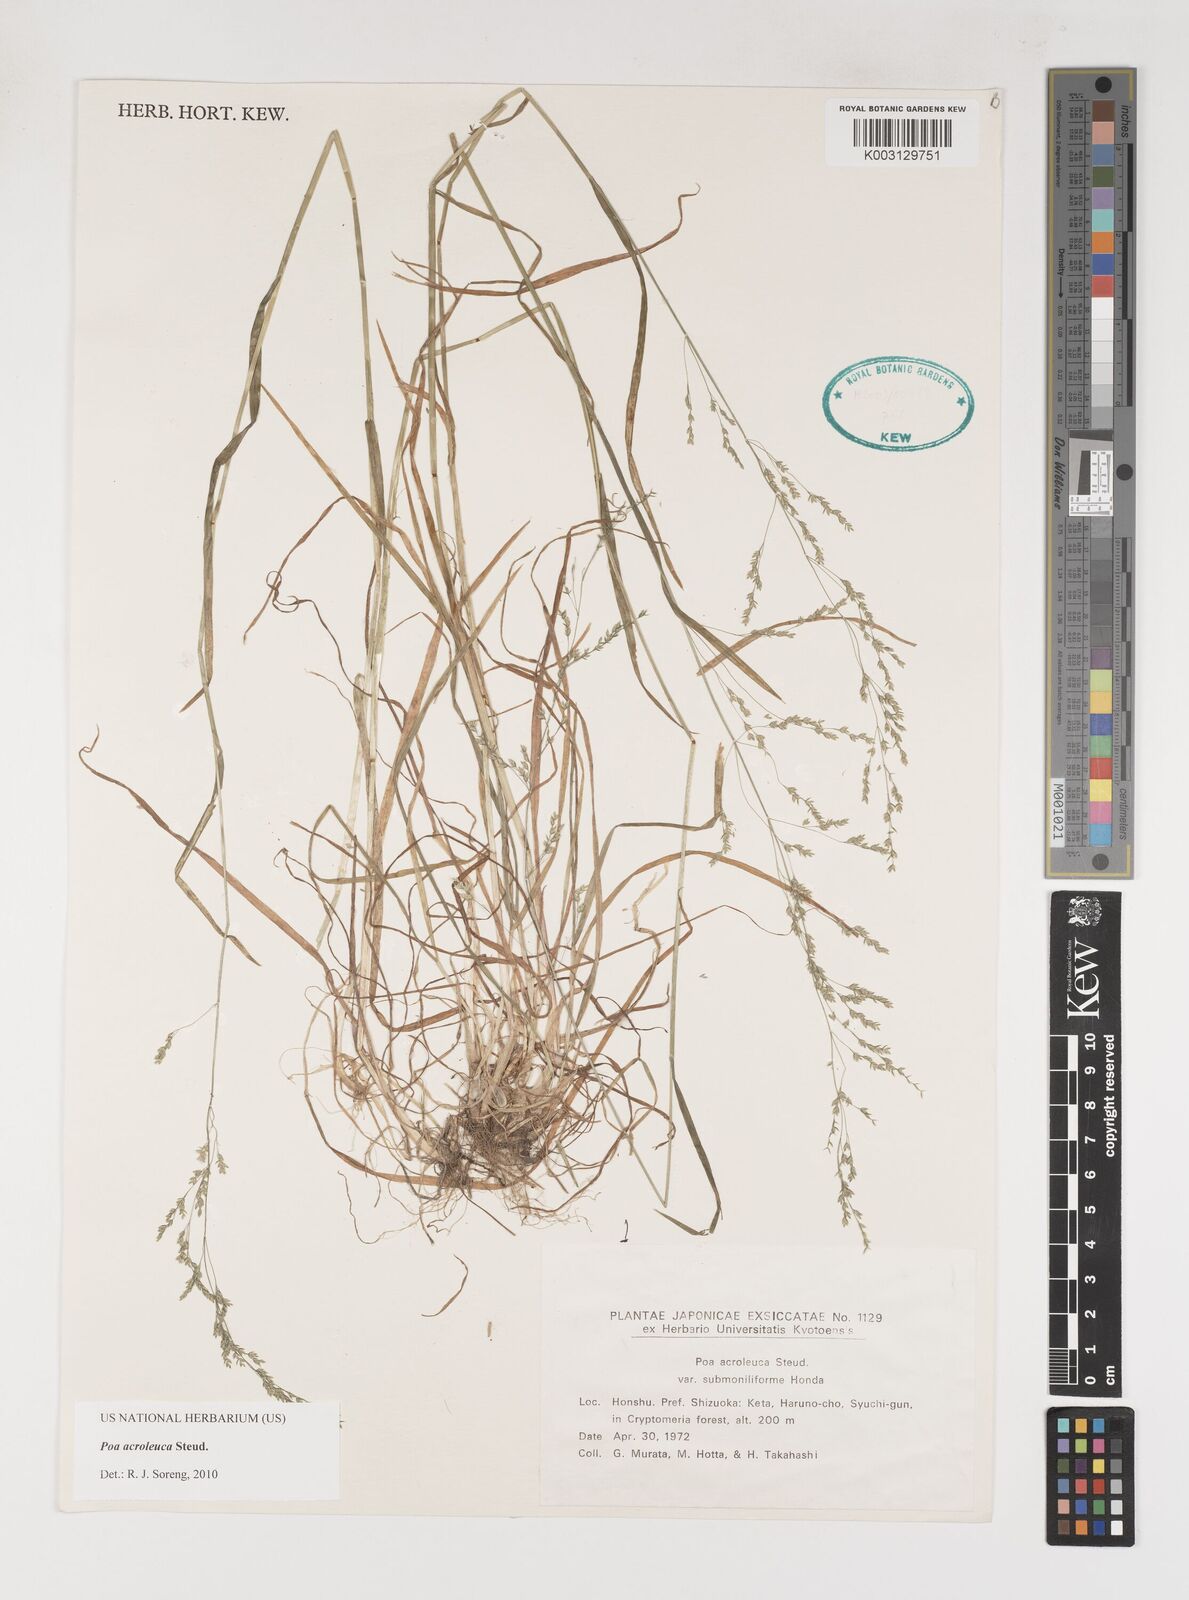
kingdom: Plantae
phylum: Tracheophyta
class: Liliopsida
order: Poales
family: Poaceae
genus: Poa
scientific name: Poa acroleuca
